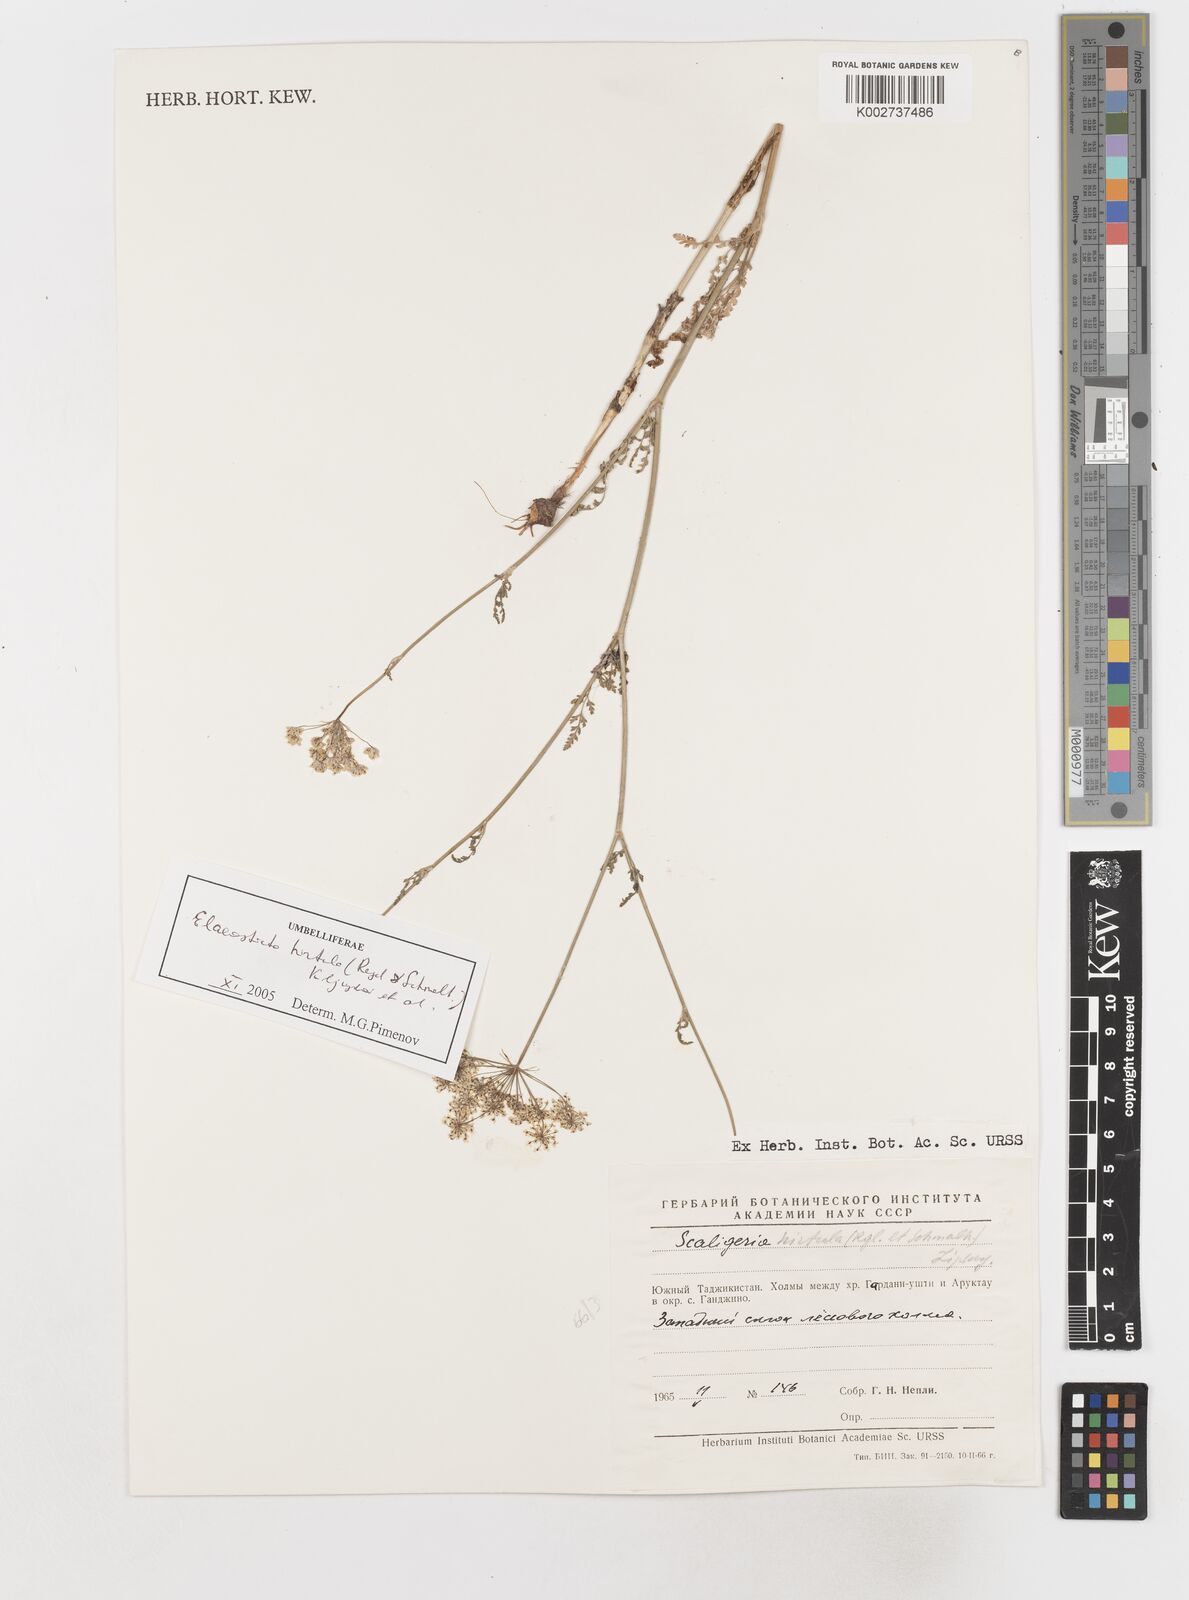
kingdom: Plantae
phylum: Tracheophyta
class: Magnoliopsida
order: Apiales
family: Apiaceae
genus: Scaligeria
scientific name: Scaligeria hirtula
